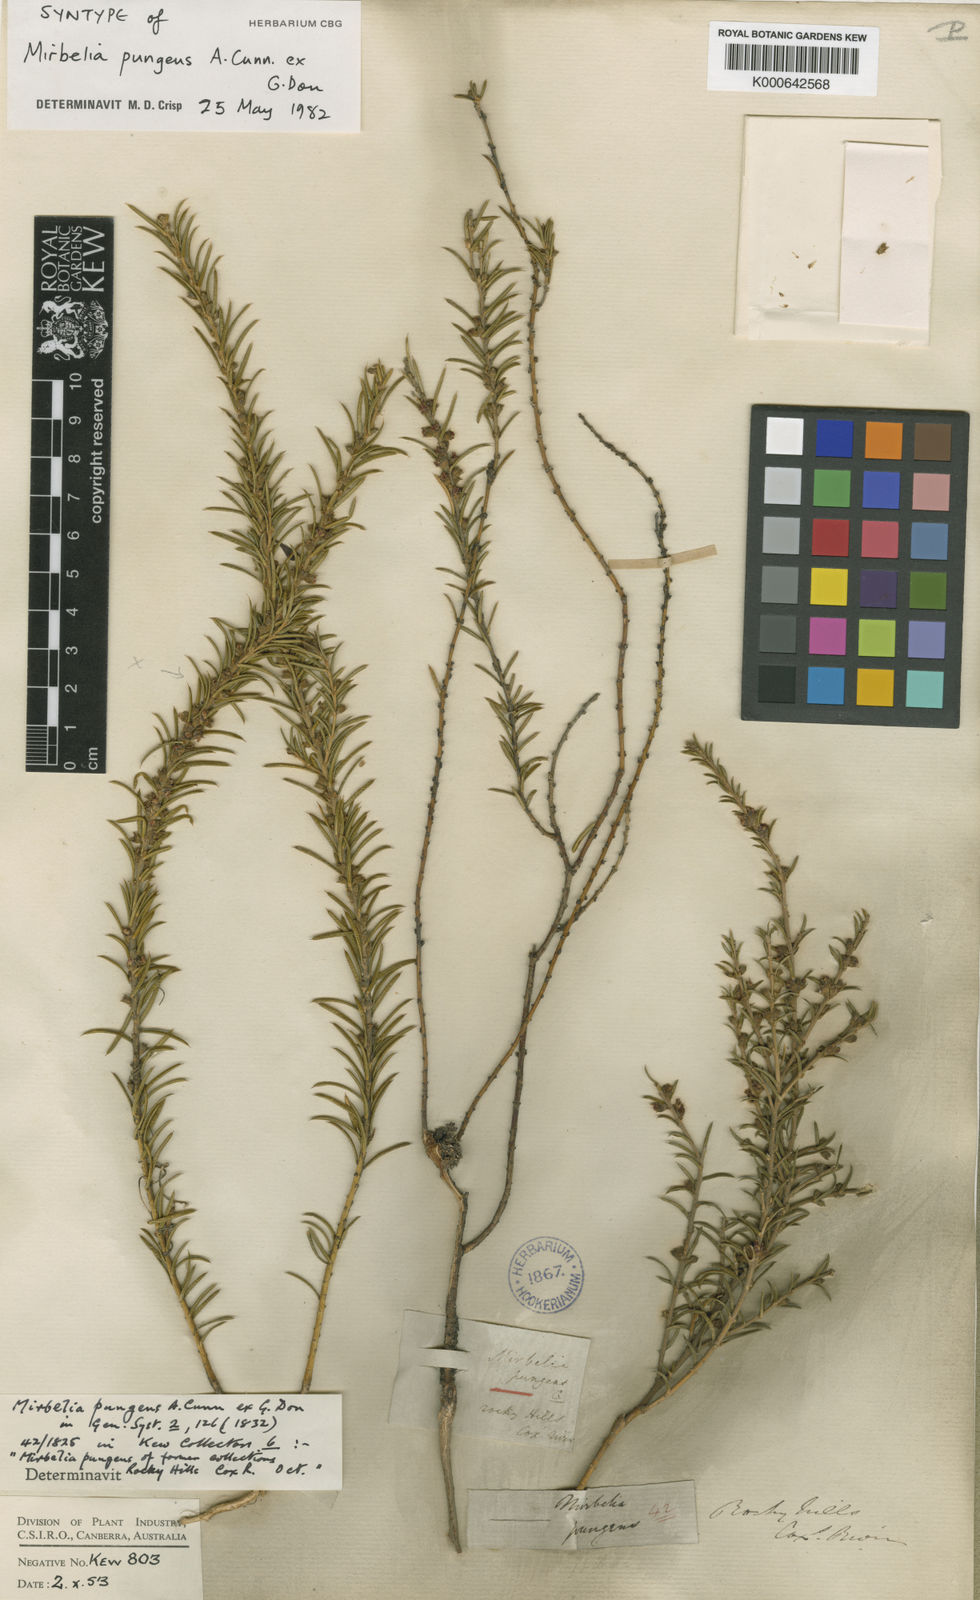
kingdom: Plantae
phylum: Tracheophyta
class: Magnoliopsida
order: Fabales
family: Fabaceae
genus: Mirbelia
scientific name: Mirbelia pungens
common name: Prickly mirbelia
